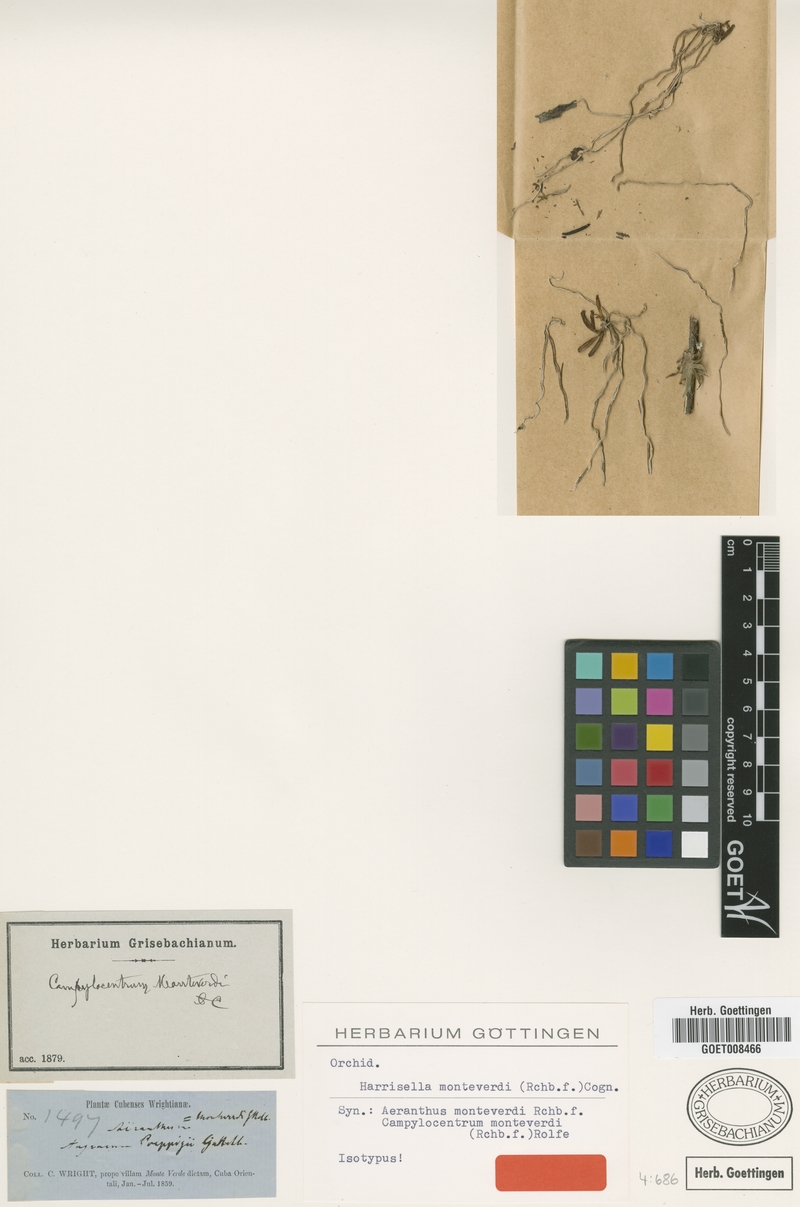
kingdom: Plantae
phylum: Tracheophyta
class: Liliopsida
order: Asparagales
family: Orchidaceae
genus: Dendrophylax
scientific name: Dendrophylax filiformis
